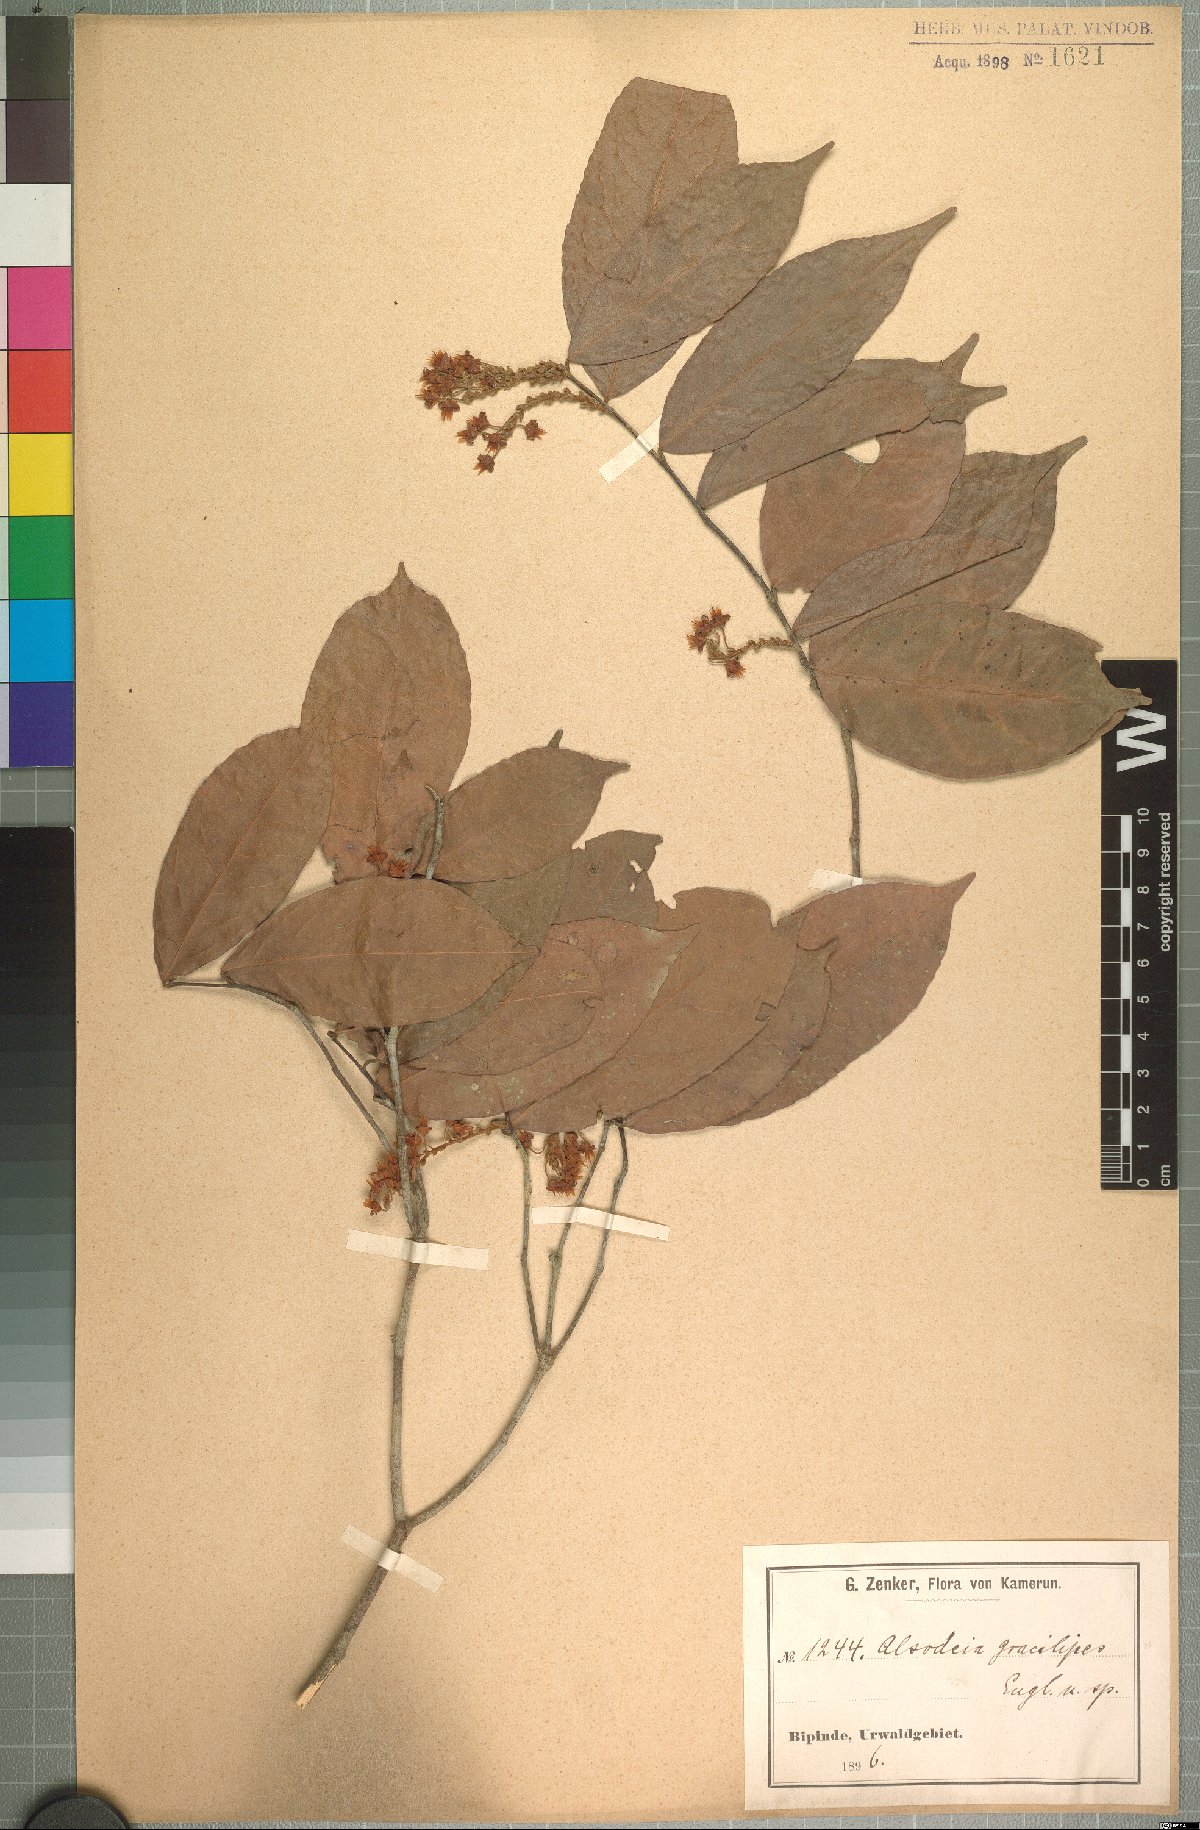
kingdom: Plantae
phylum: Tracheophyta
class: Magnoliopsida
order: Malpighiales
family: Violaceae
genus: Rinorea
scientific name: Rinorea angustifolia
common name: White violet-bush
